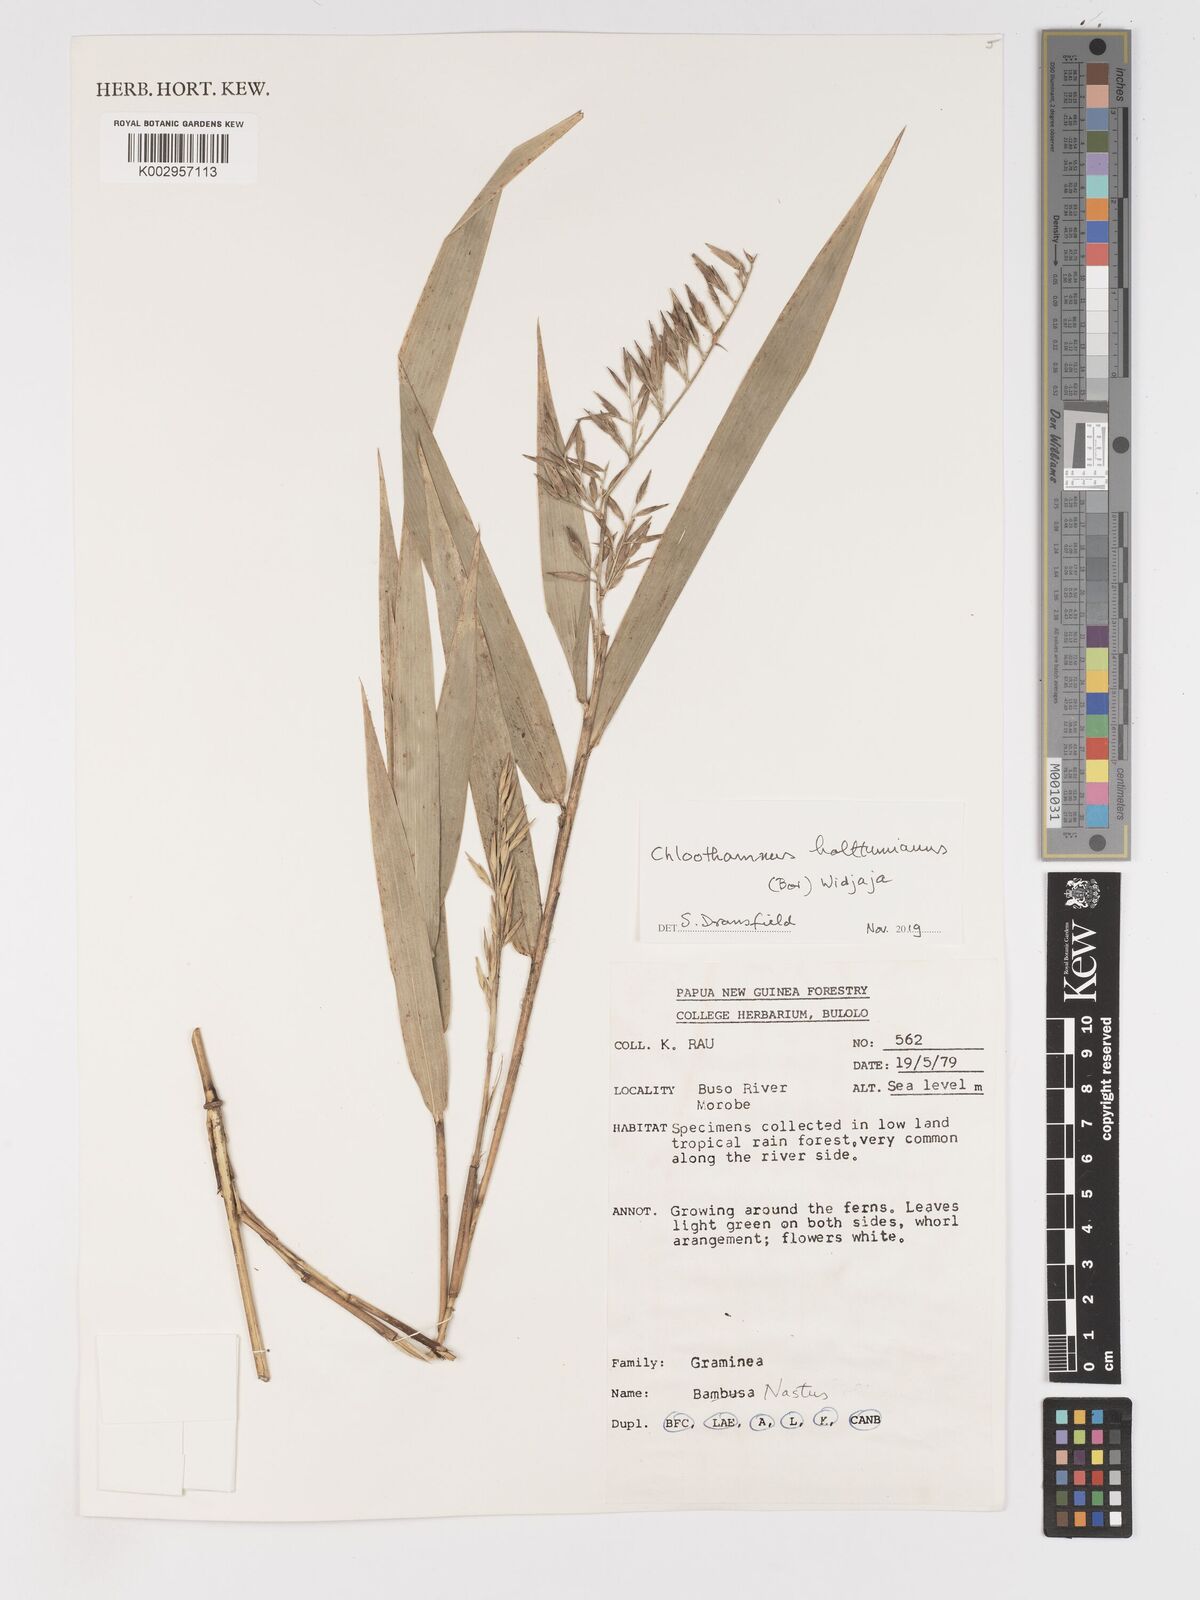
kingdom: Plantae
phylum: Tracheophyta
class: Liliopsida
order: Poales
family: Poaceae
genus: Chloothamnus
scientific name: Chloothamnus holttumianus
